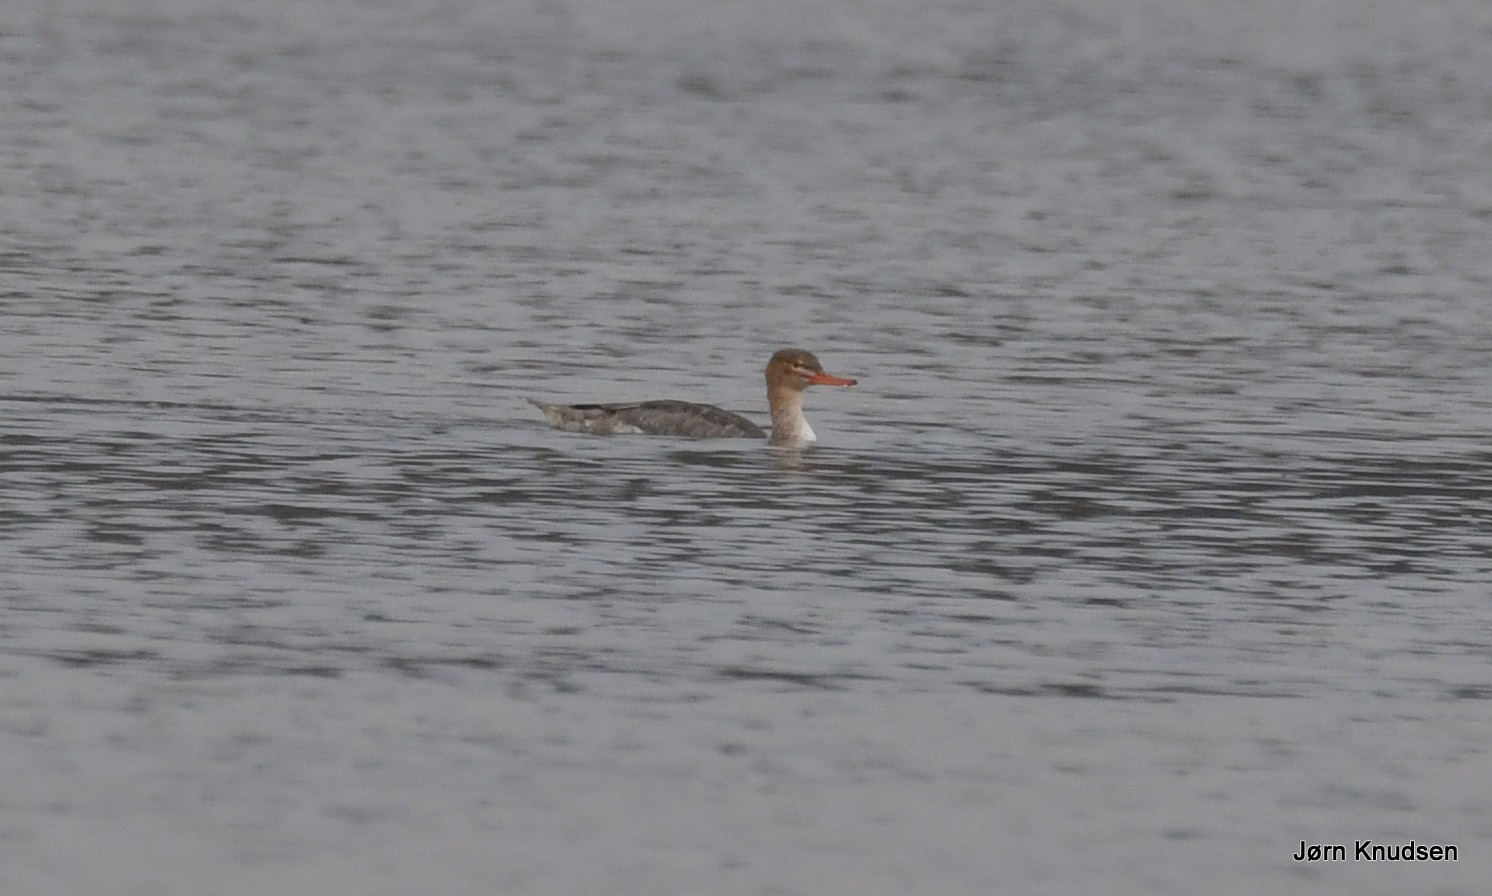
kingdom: Animalia
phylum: Chordata
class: Aves
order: Anseriformes
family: Anatidae
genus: Mergus
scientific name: Mergus serrator
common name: Toppet skallesluger
